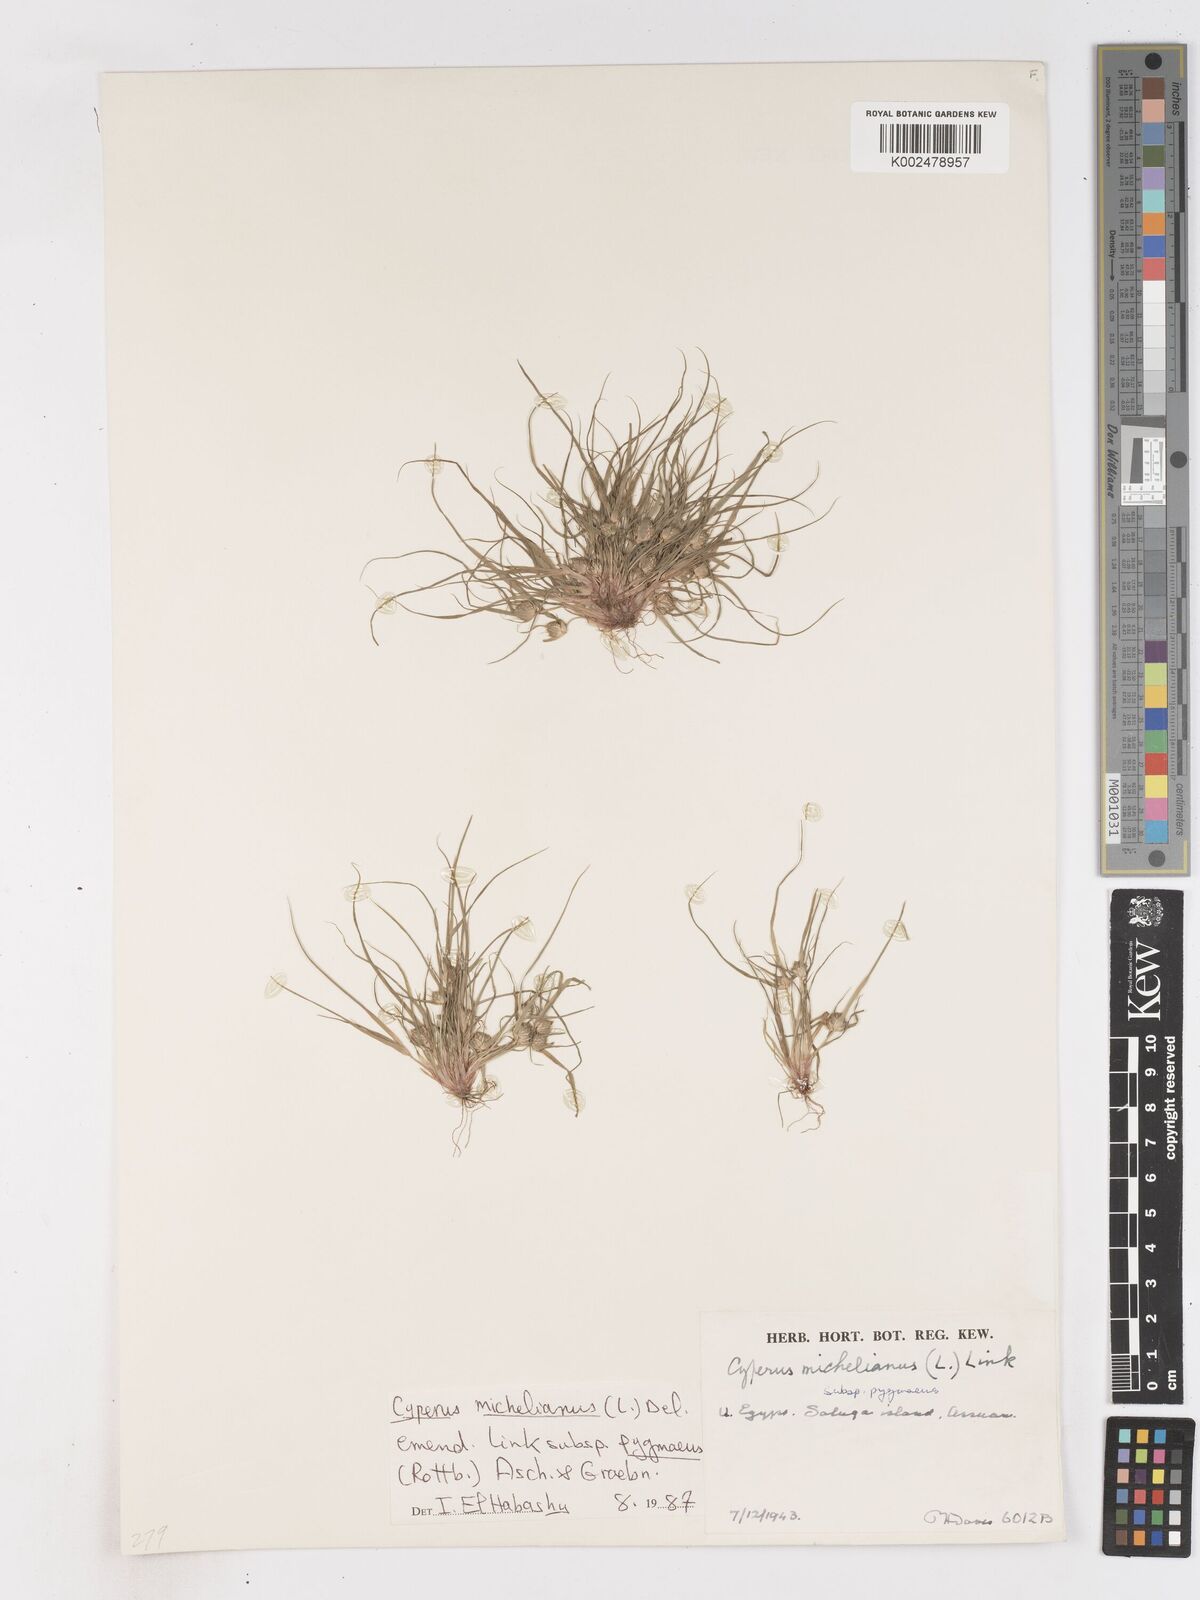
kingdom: Plantae
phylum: Tracheophyta
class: Liliopsida
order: Poales
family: Cyperaceae
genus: Cyperus
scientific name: Cyperus michelianus
